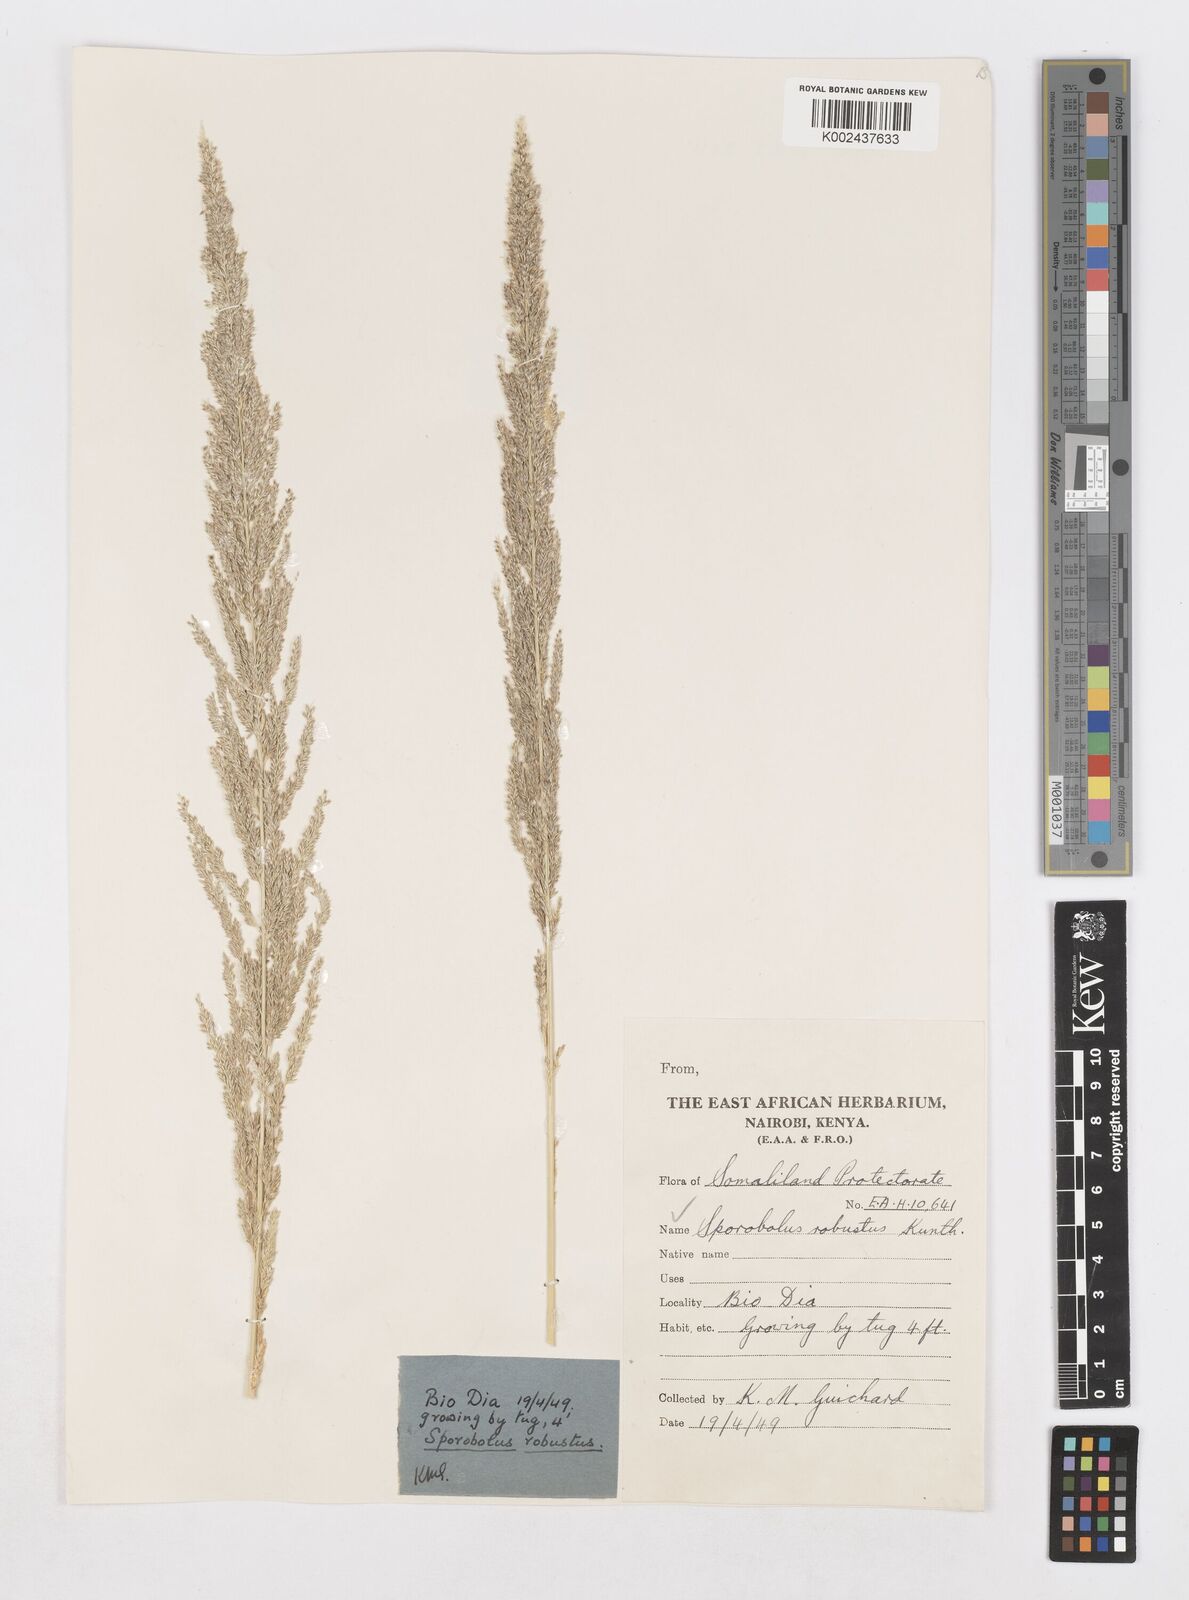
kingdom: Plantae
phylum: Tracheophyta
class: Liliopsida
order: Poales
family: Poaceae
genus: Sporobolus
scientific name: Sporobolus consimilis
